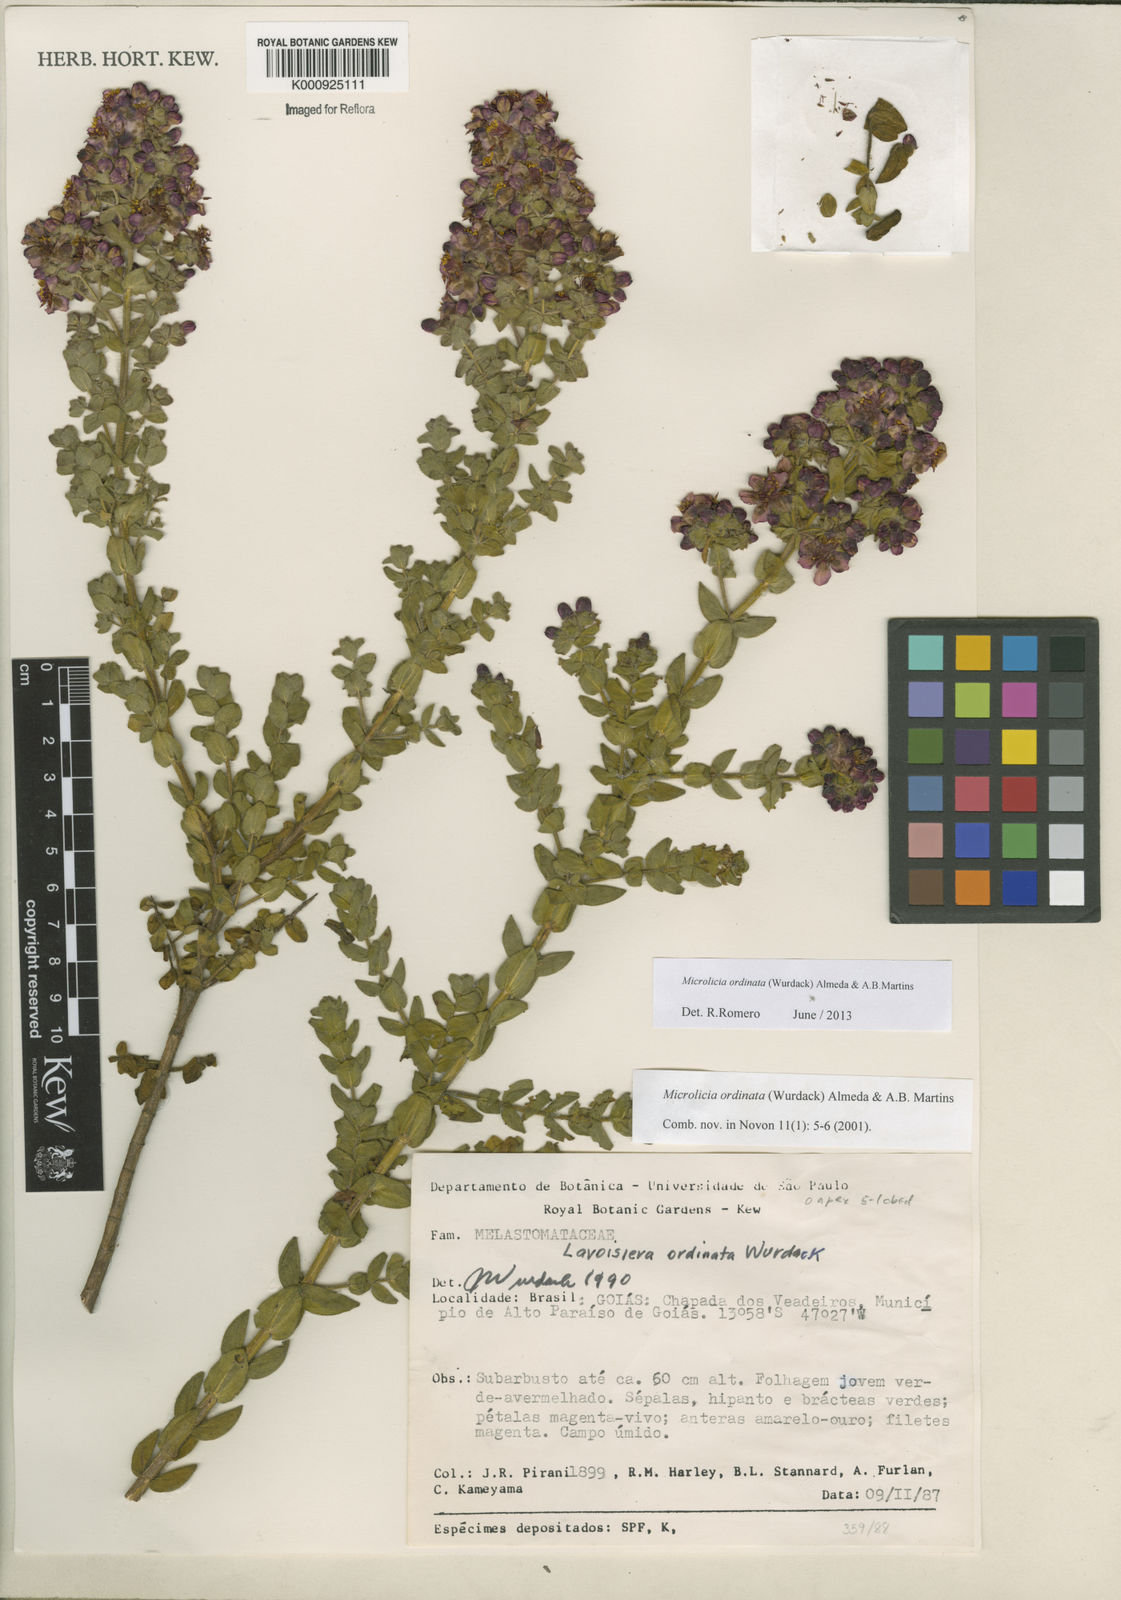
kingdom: Plantae
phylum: Tracheophyta
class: Magnoliopsida
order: Myrtales
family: Melastomataceae
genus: Microlicia
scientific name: Microlicia ordinata
